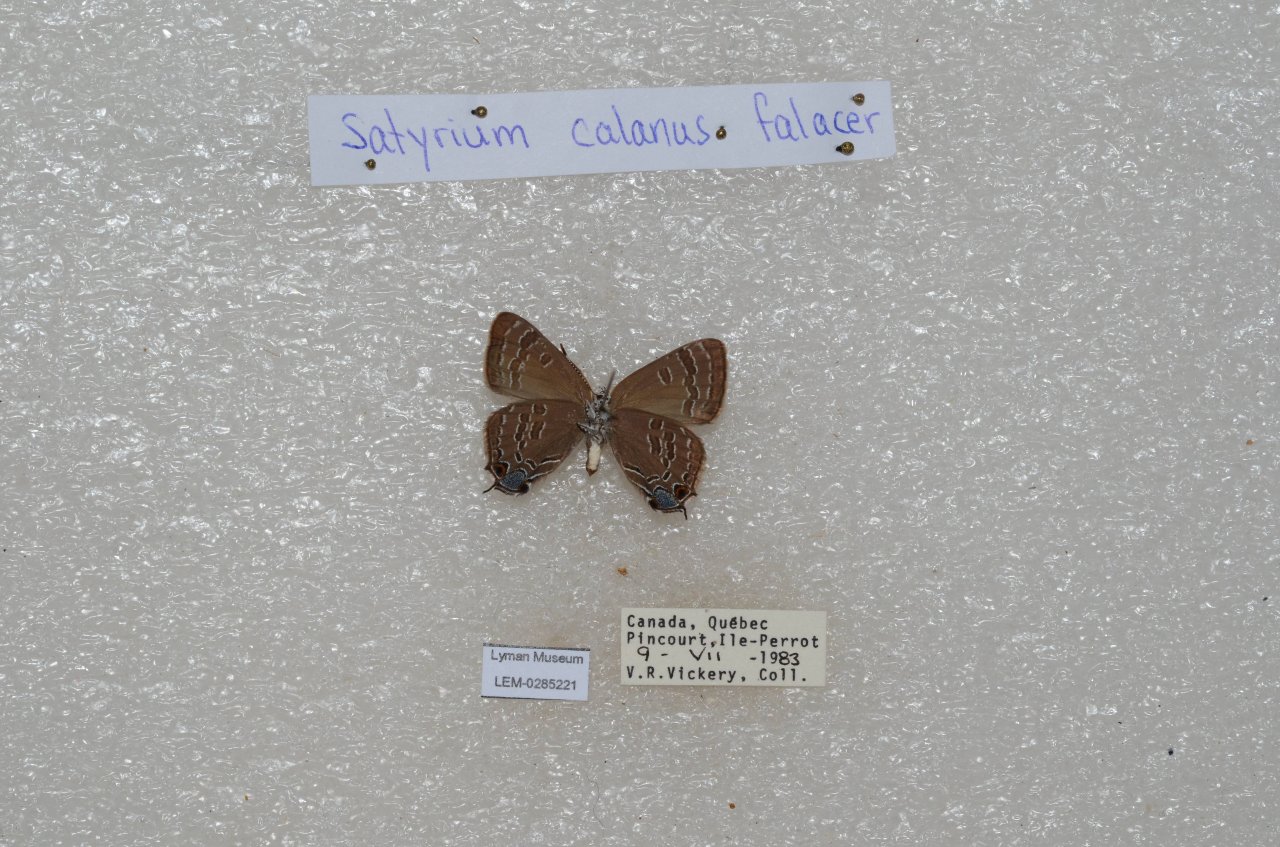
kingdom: Animalia
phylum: Arthropoda
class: Insecta
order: Lepidoptera
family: Lycaenidae
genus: Satyrium
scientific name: Satyrium calanus
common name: Banded Hairstreak
